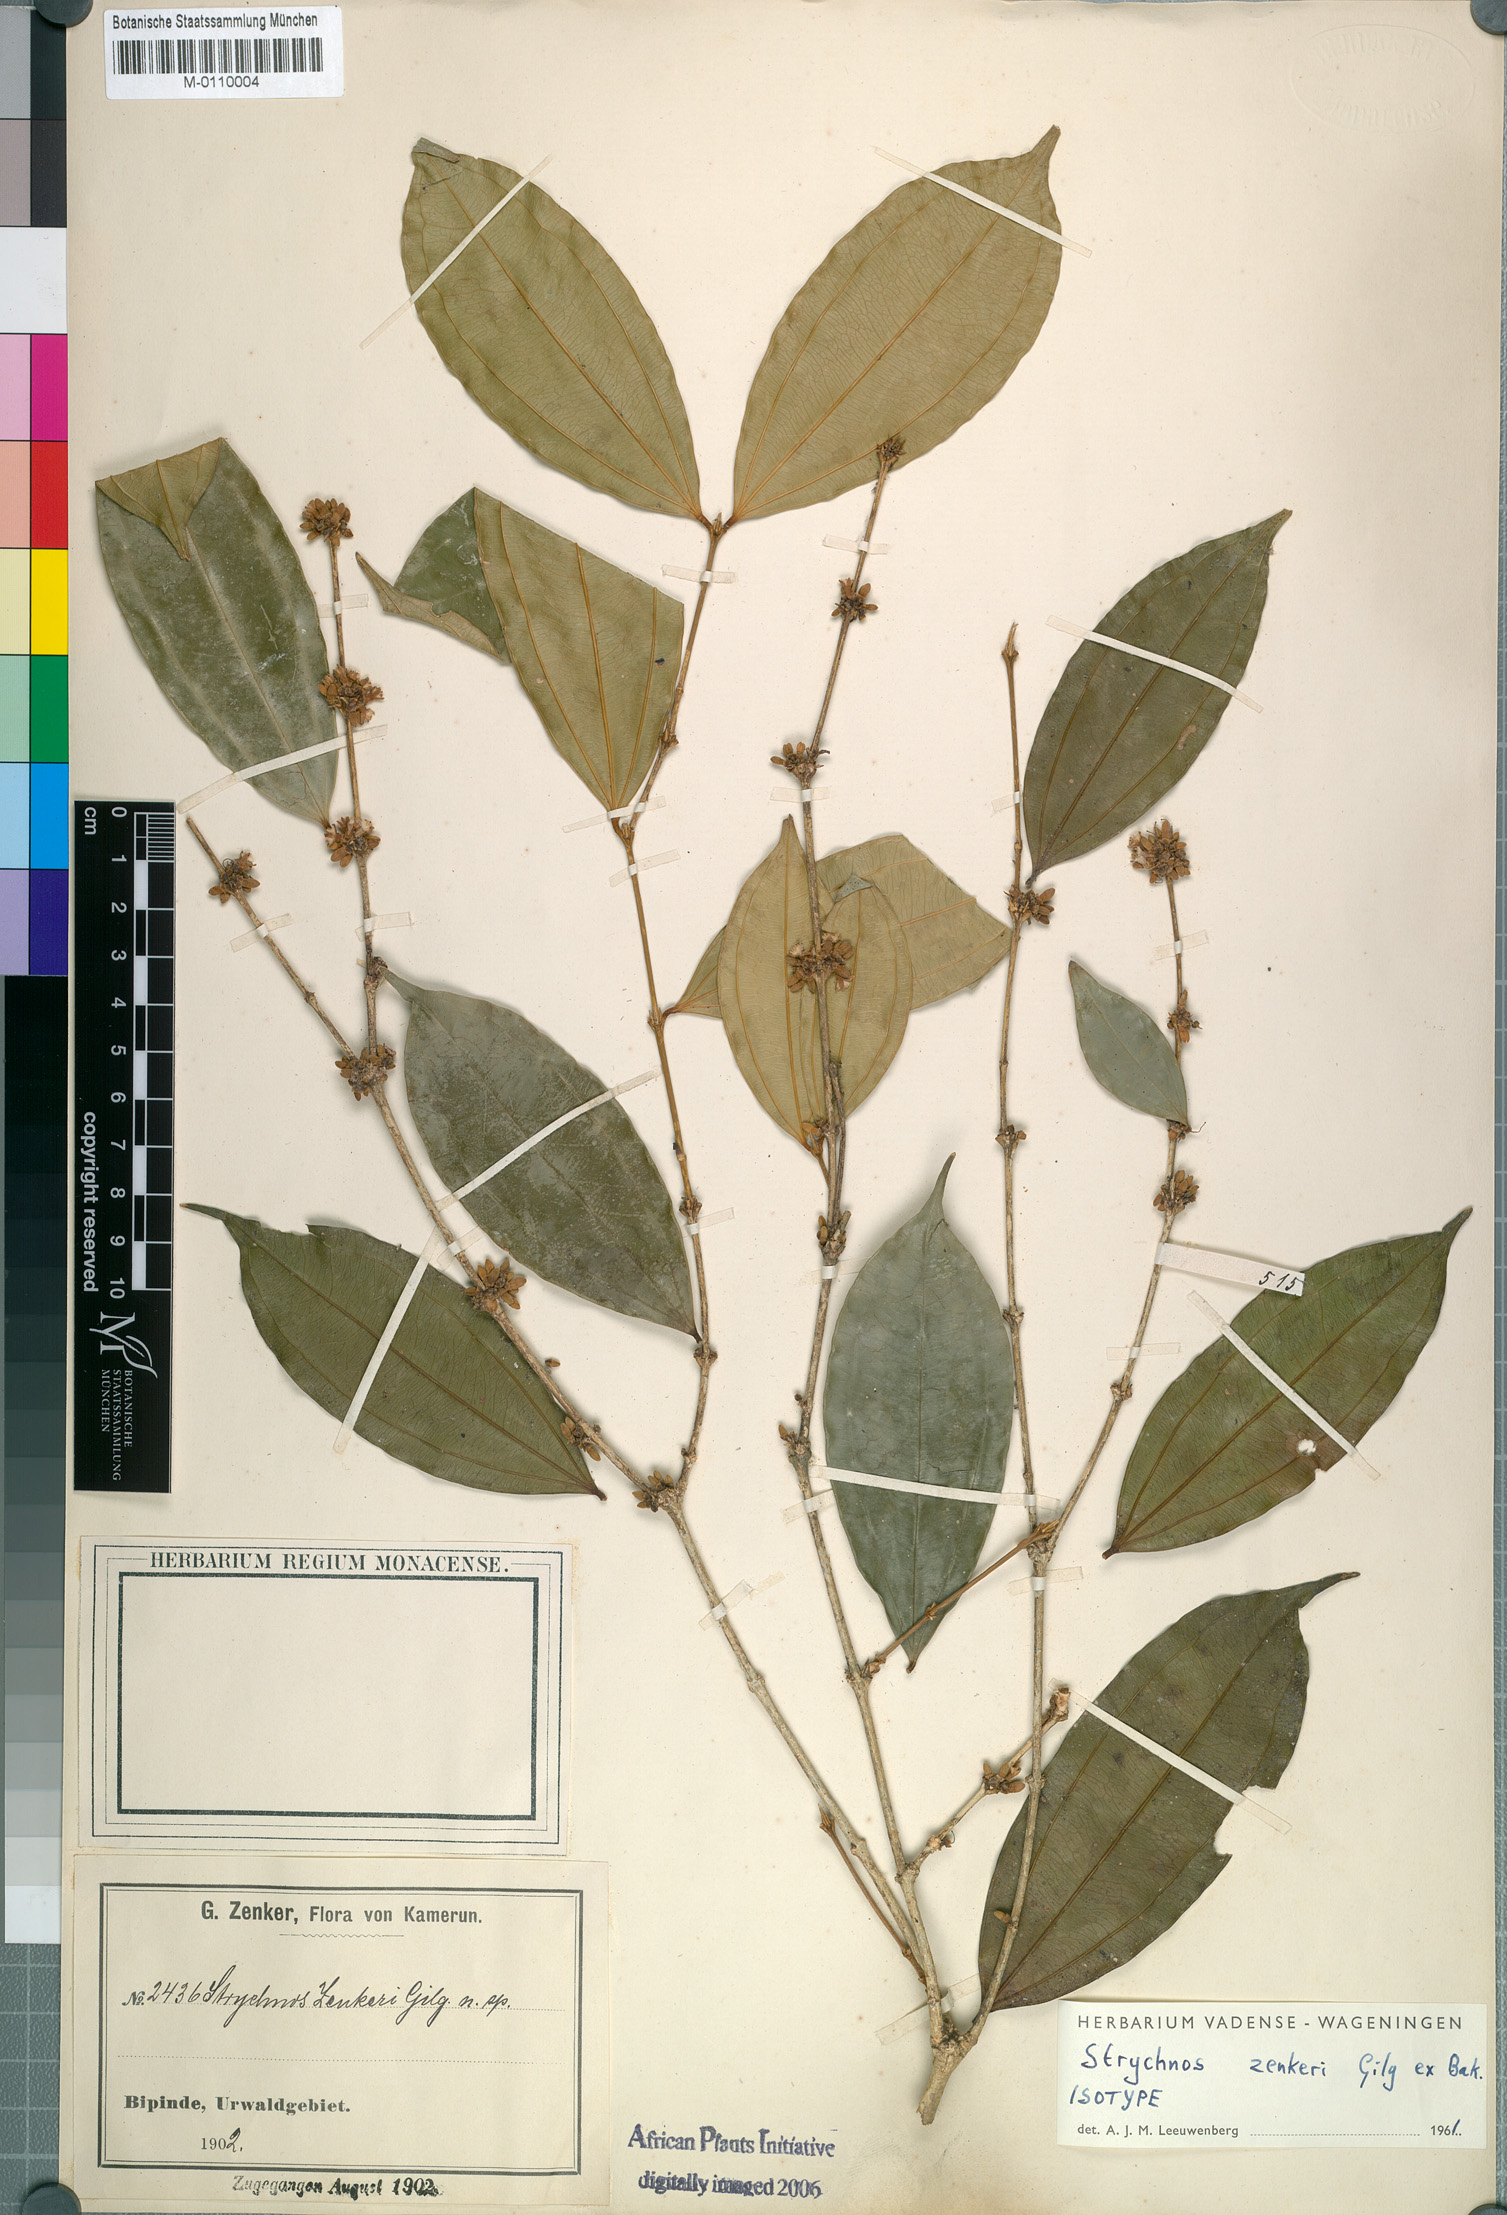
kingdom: Plantae
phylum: Tracheophyta
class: Magnoliopsida
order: Gentianales
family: Loganiaceae
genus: Strychnos
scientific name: Strychnos zenkeri
